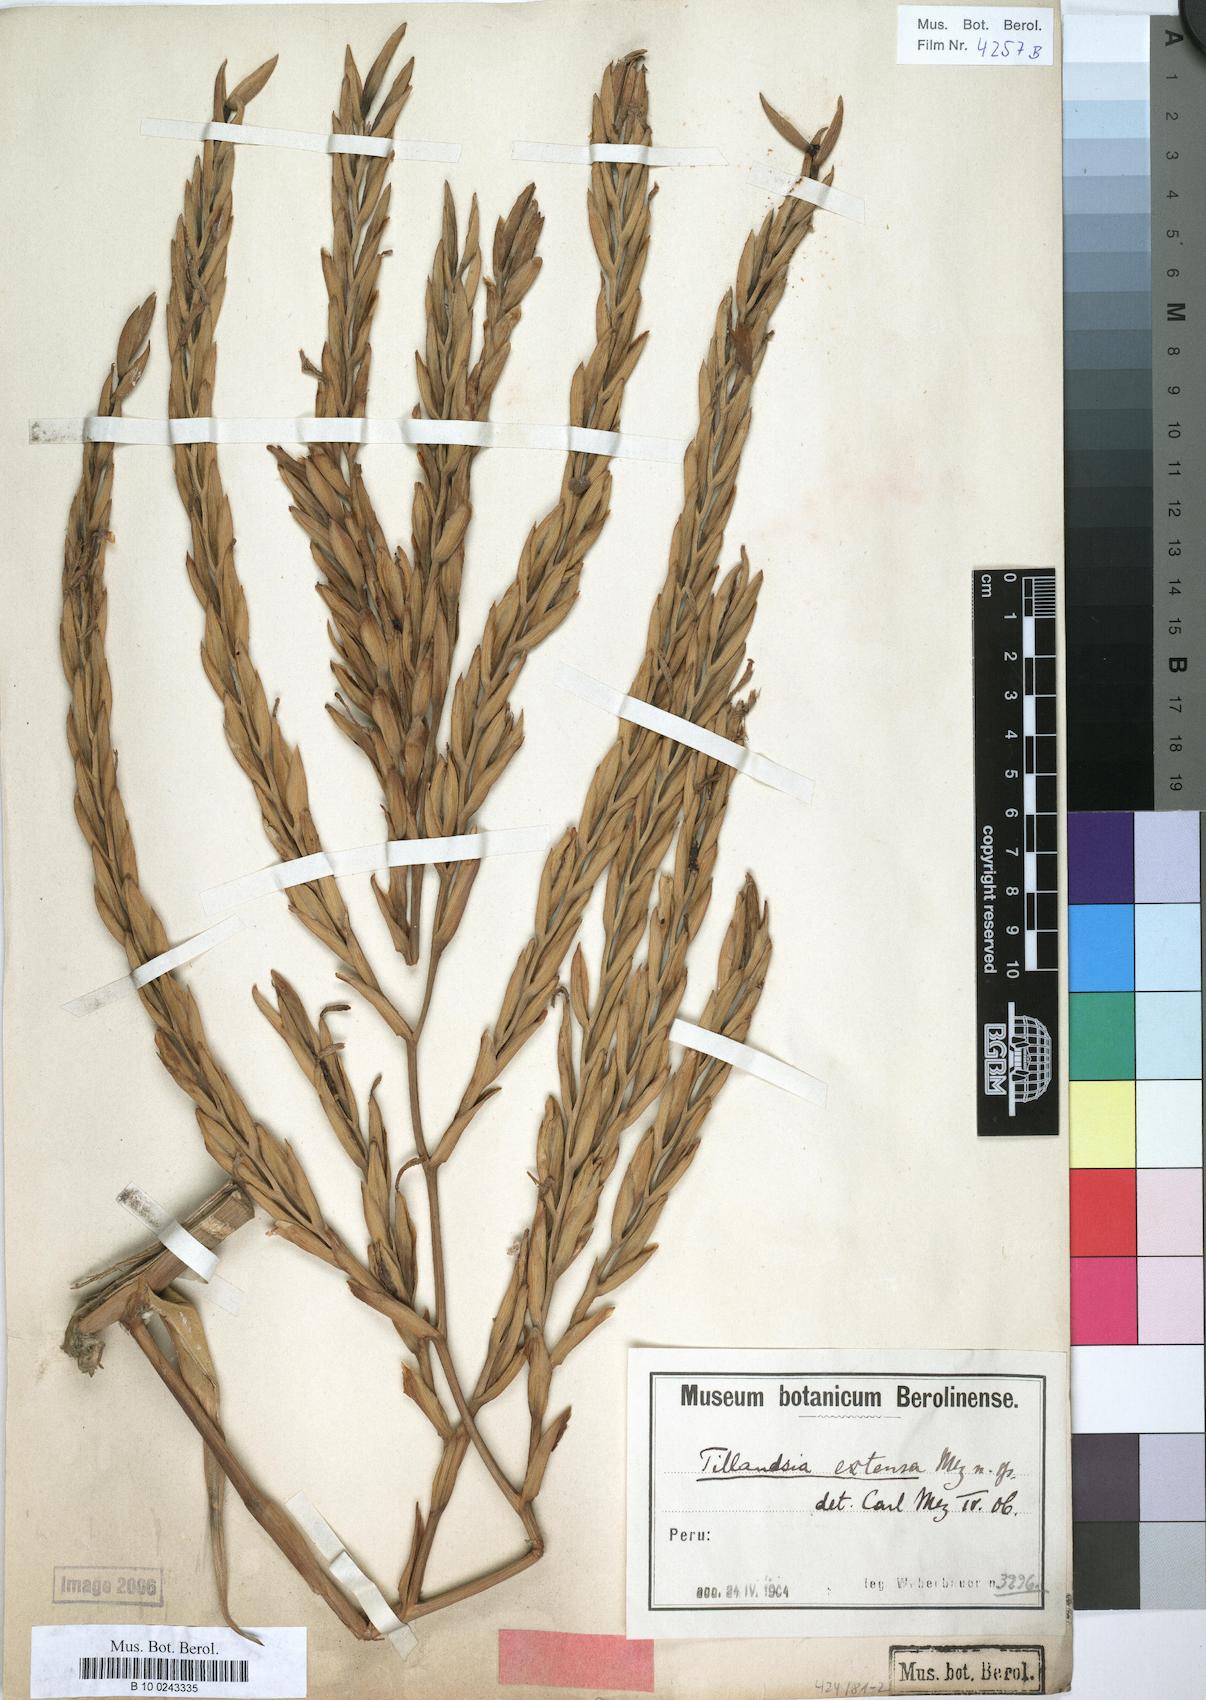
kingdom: Plantae
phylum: Tracheophyta
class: Liliopsida
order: Poales
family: Bromeliaceae
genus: Tillandsia
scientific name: Tillandsia extensa
